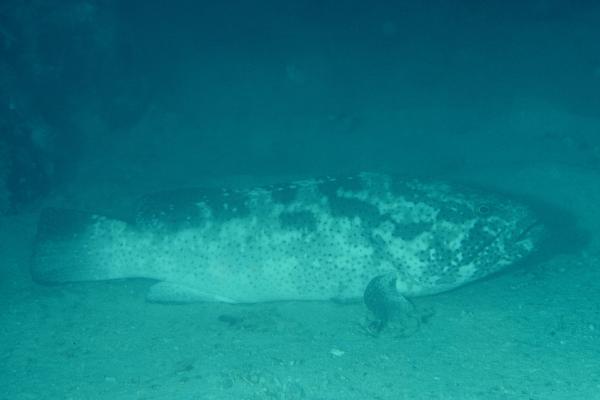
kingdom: Animalia
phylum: Chordata
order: Perciformes
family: Serranidae
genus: Epinephelus
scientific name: Epinephelus malabaricus
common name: Malabar grouper
